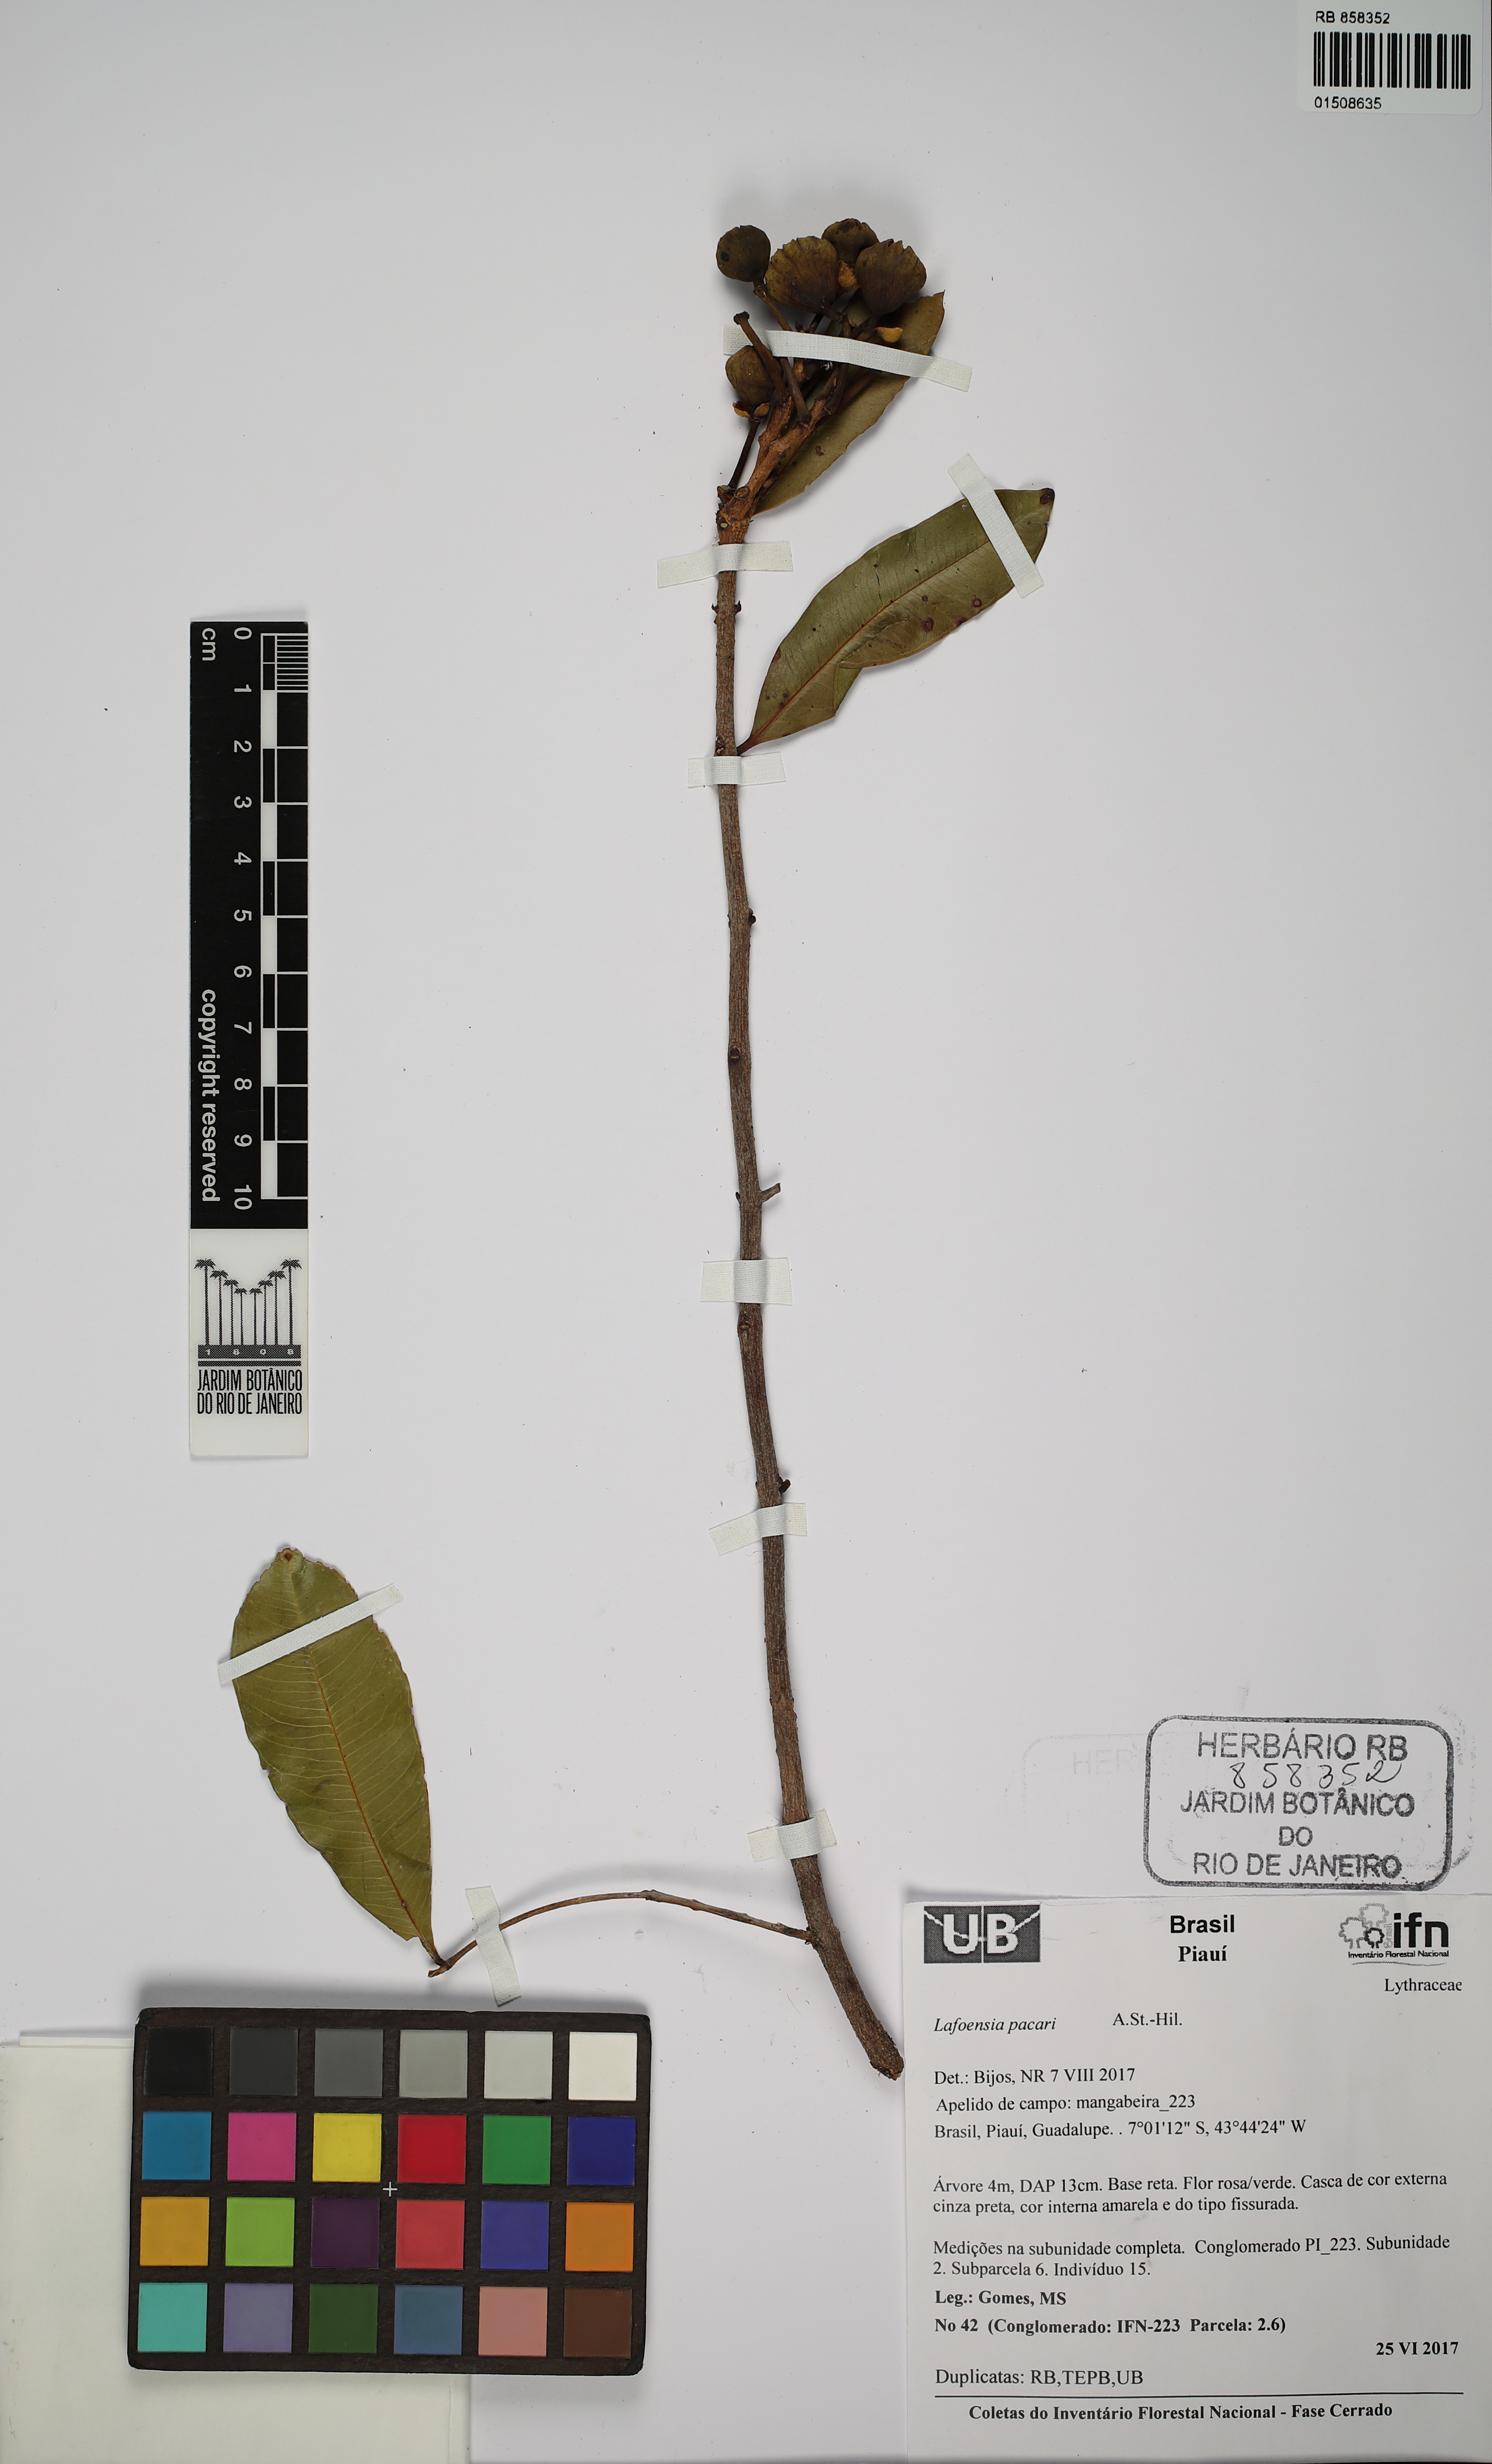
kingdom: Plantae
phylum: Tracheophyta
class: Magnoliopsida
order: Myrtales
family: Lythraceae
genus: Lafoensia
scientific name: Lafoensia pacari
